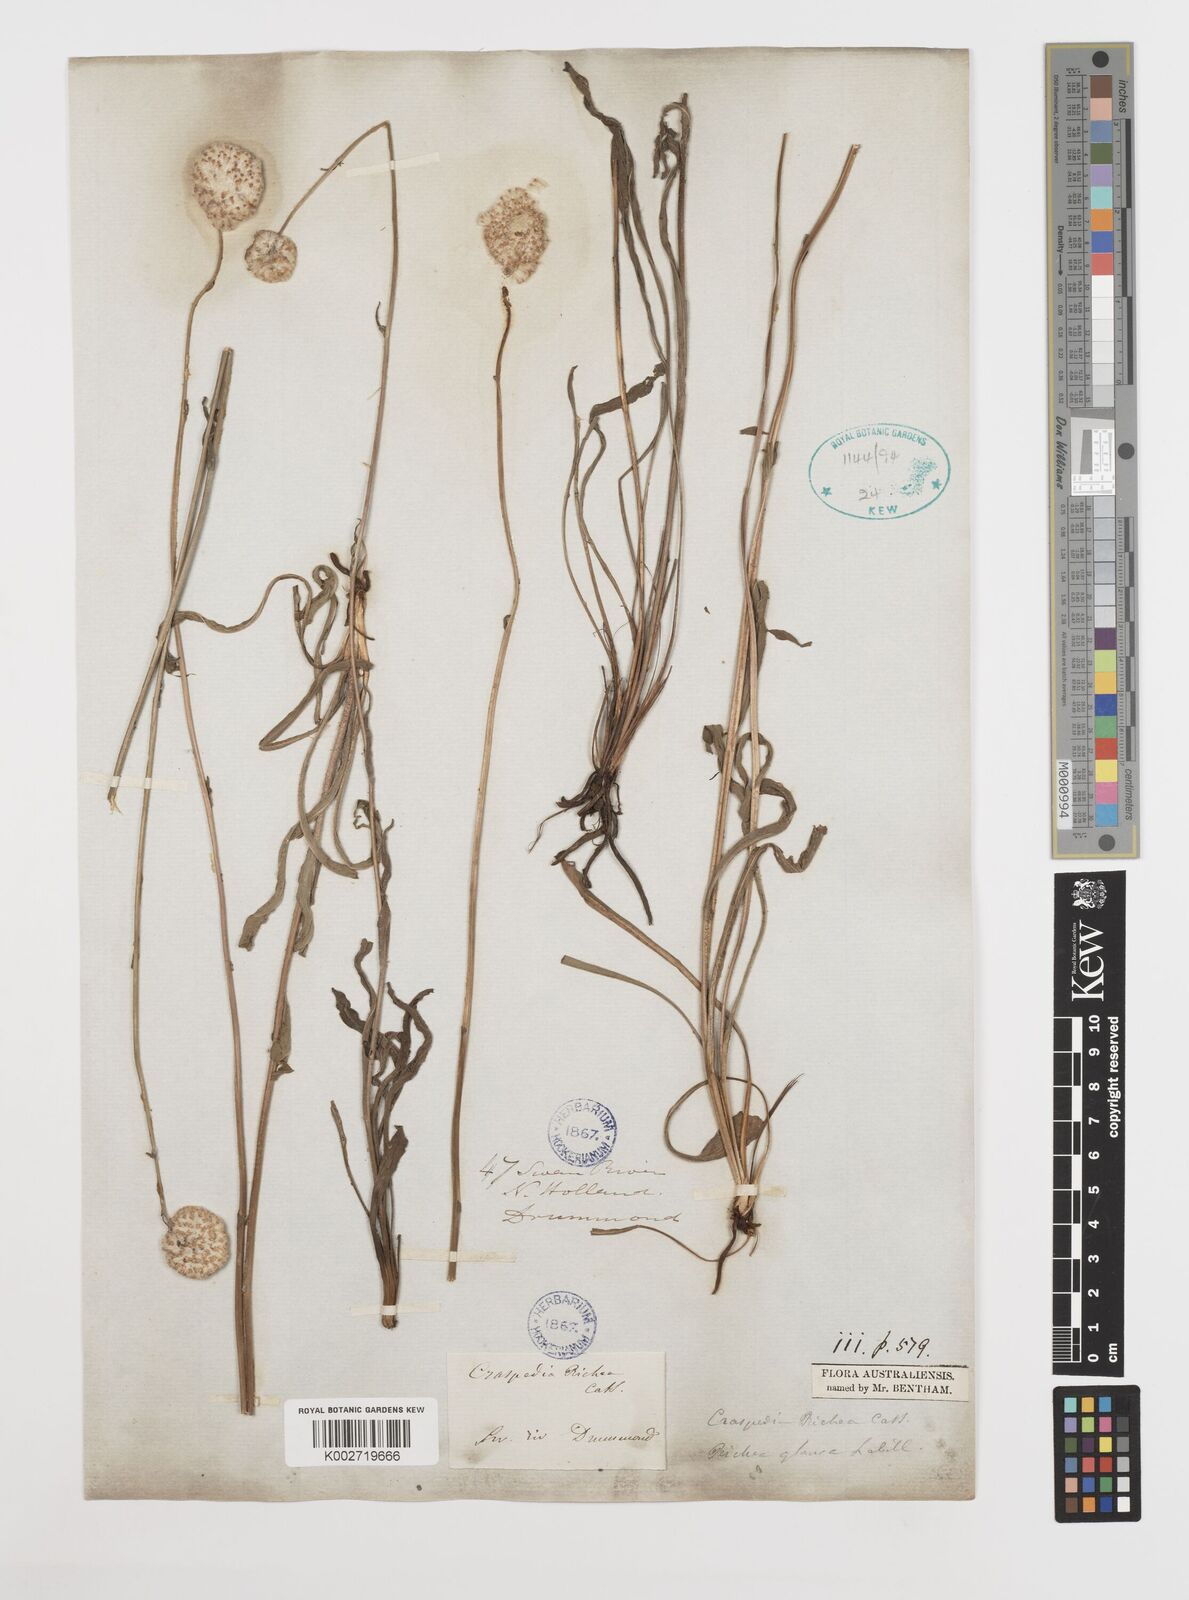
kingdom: Plantae
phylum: Tracheophyta
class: Magnoliopsida
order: Asterales
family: Asteraceae
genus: Craspedia
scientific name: Craspedia glauca
